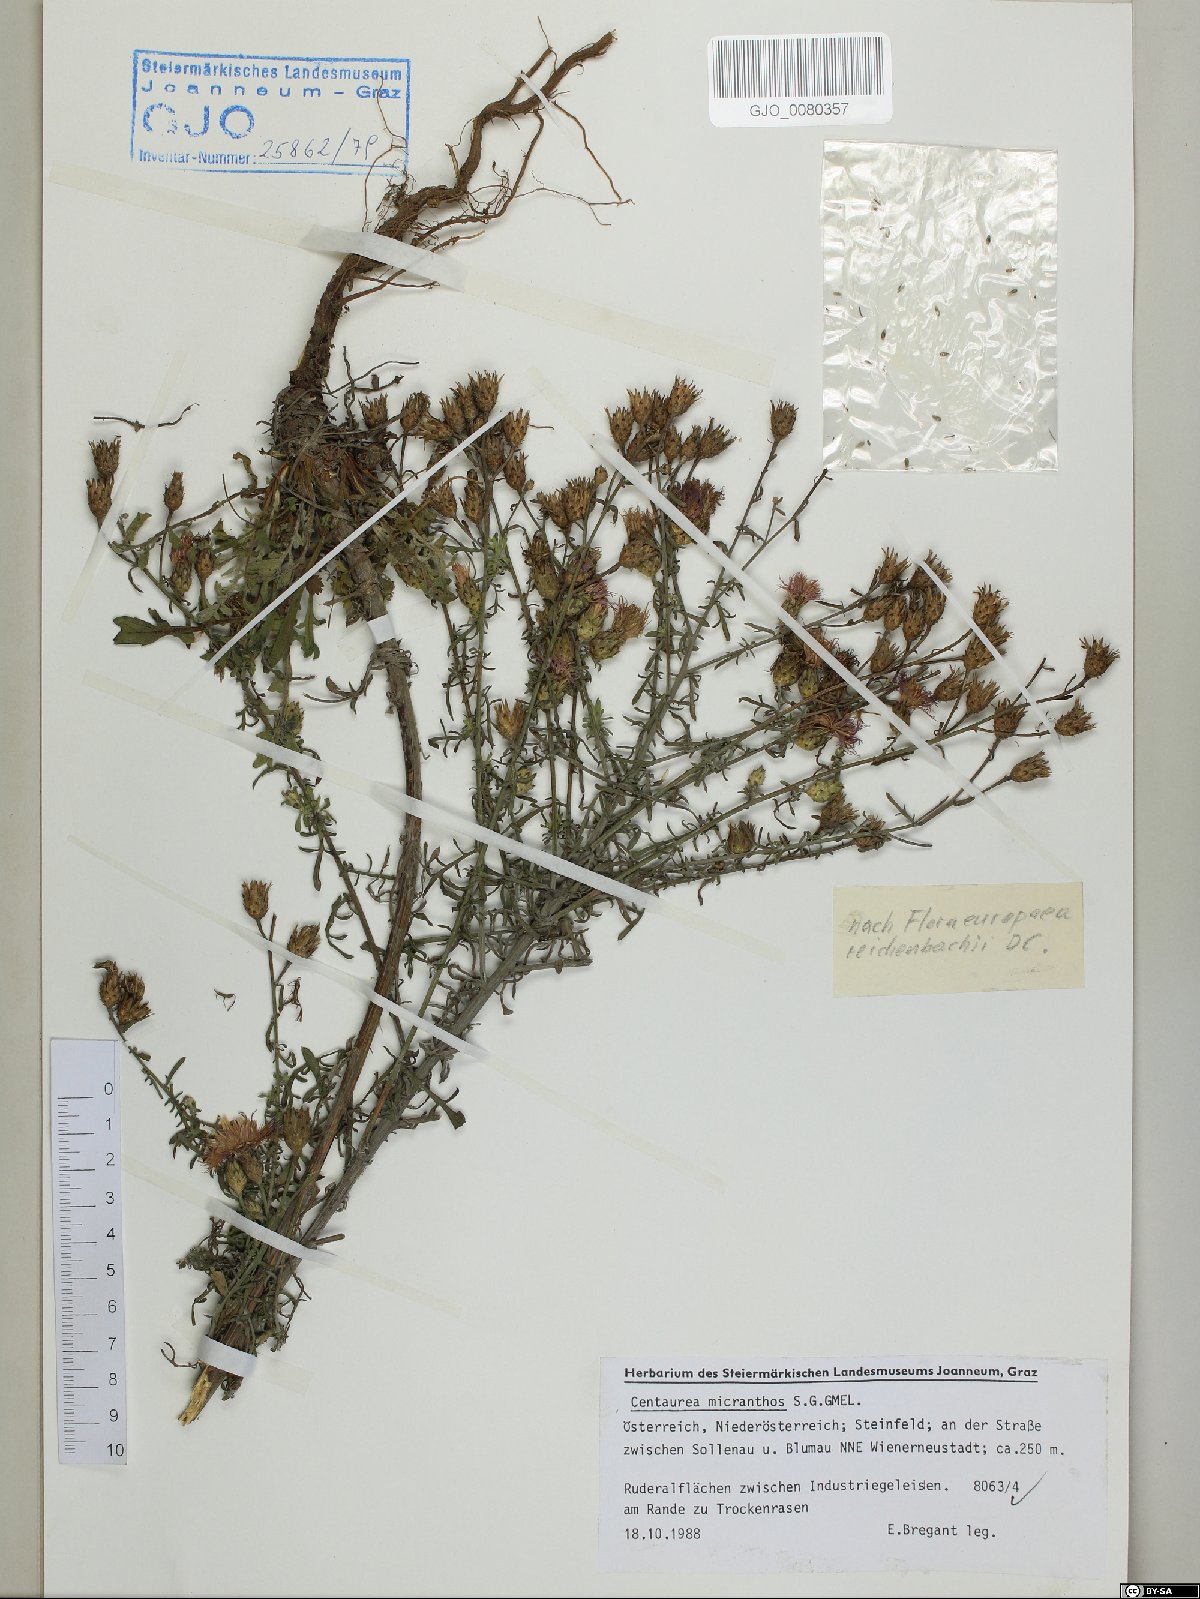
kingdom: Plantae
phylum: Tracheophyta
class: Magnoliopsida
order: Asterales
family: Asteraceae
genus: Centaurea
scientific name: Centaurea micranthos
